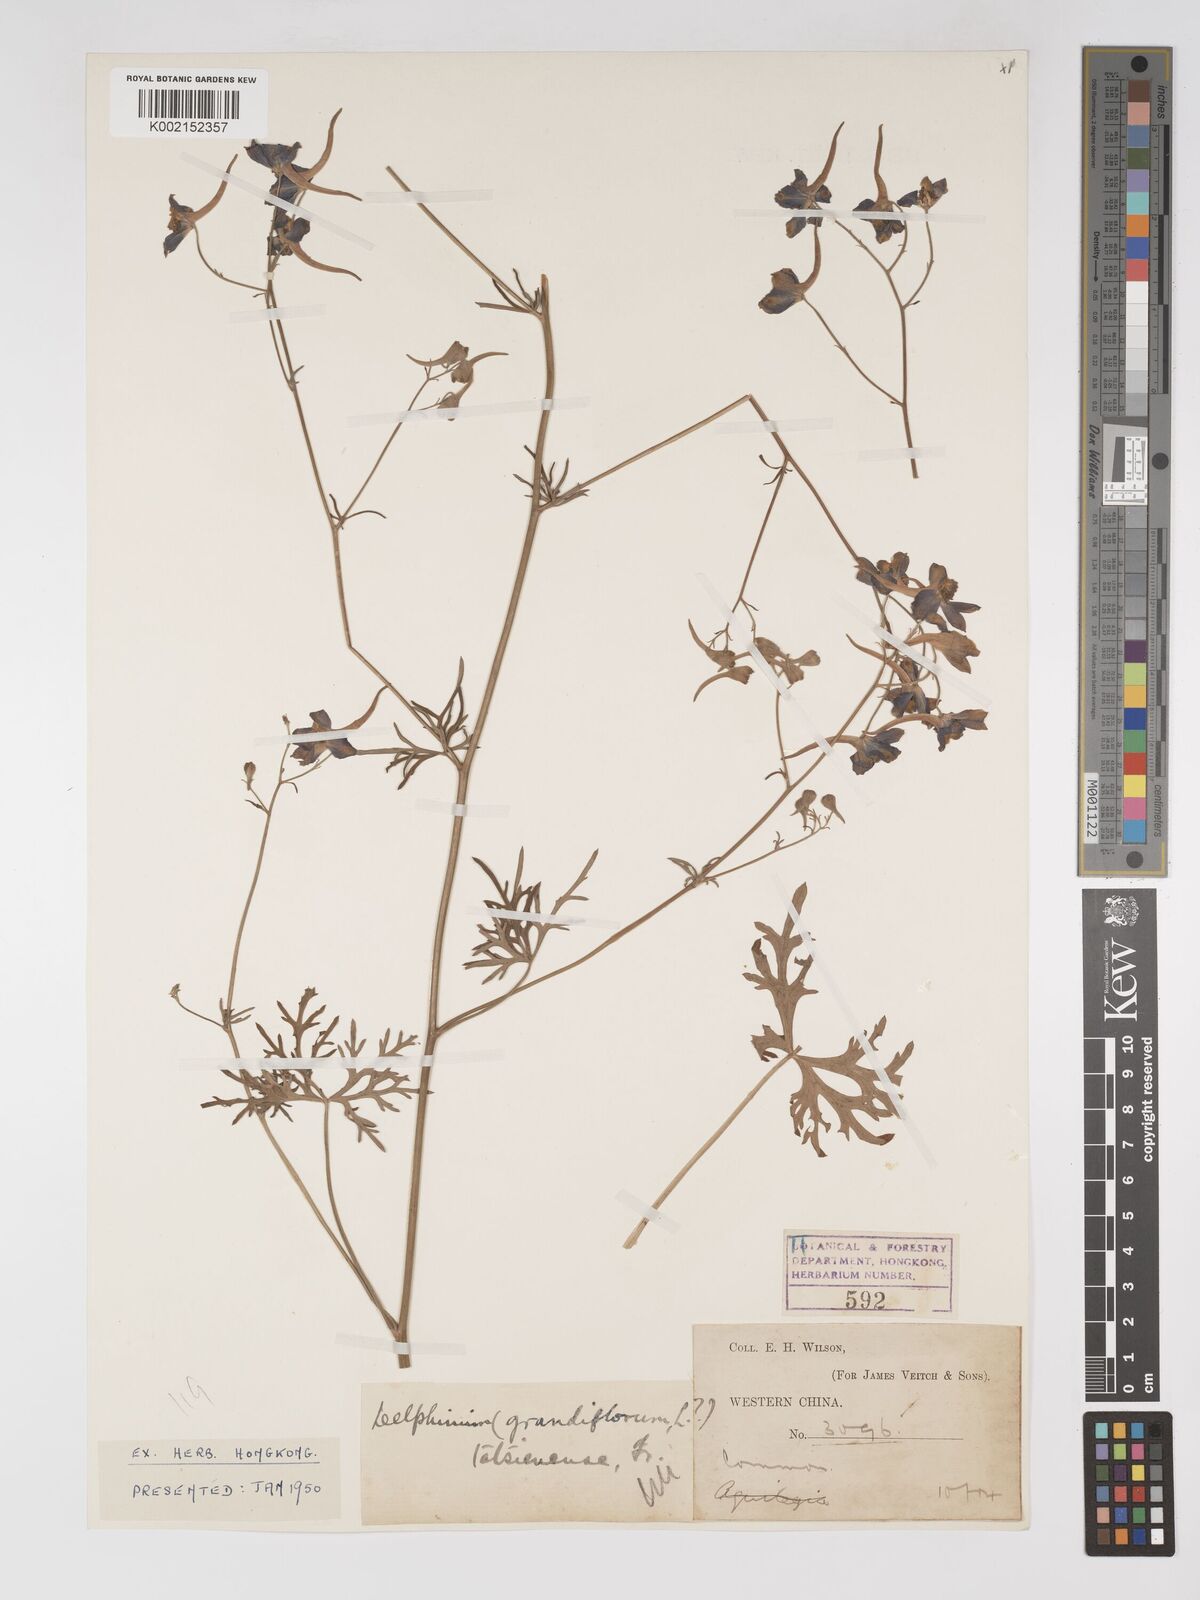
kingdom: Plantae
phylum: Tracheophyta
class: Magnoliopsida
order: Ranunculales
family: Ranunculaceae
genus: Delphinium
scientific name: Delphinium tatsienense
